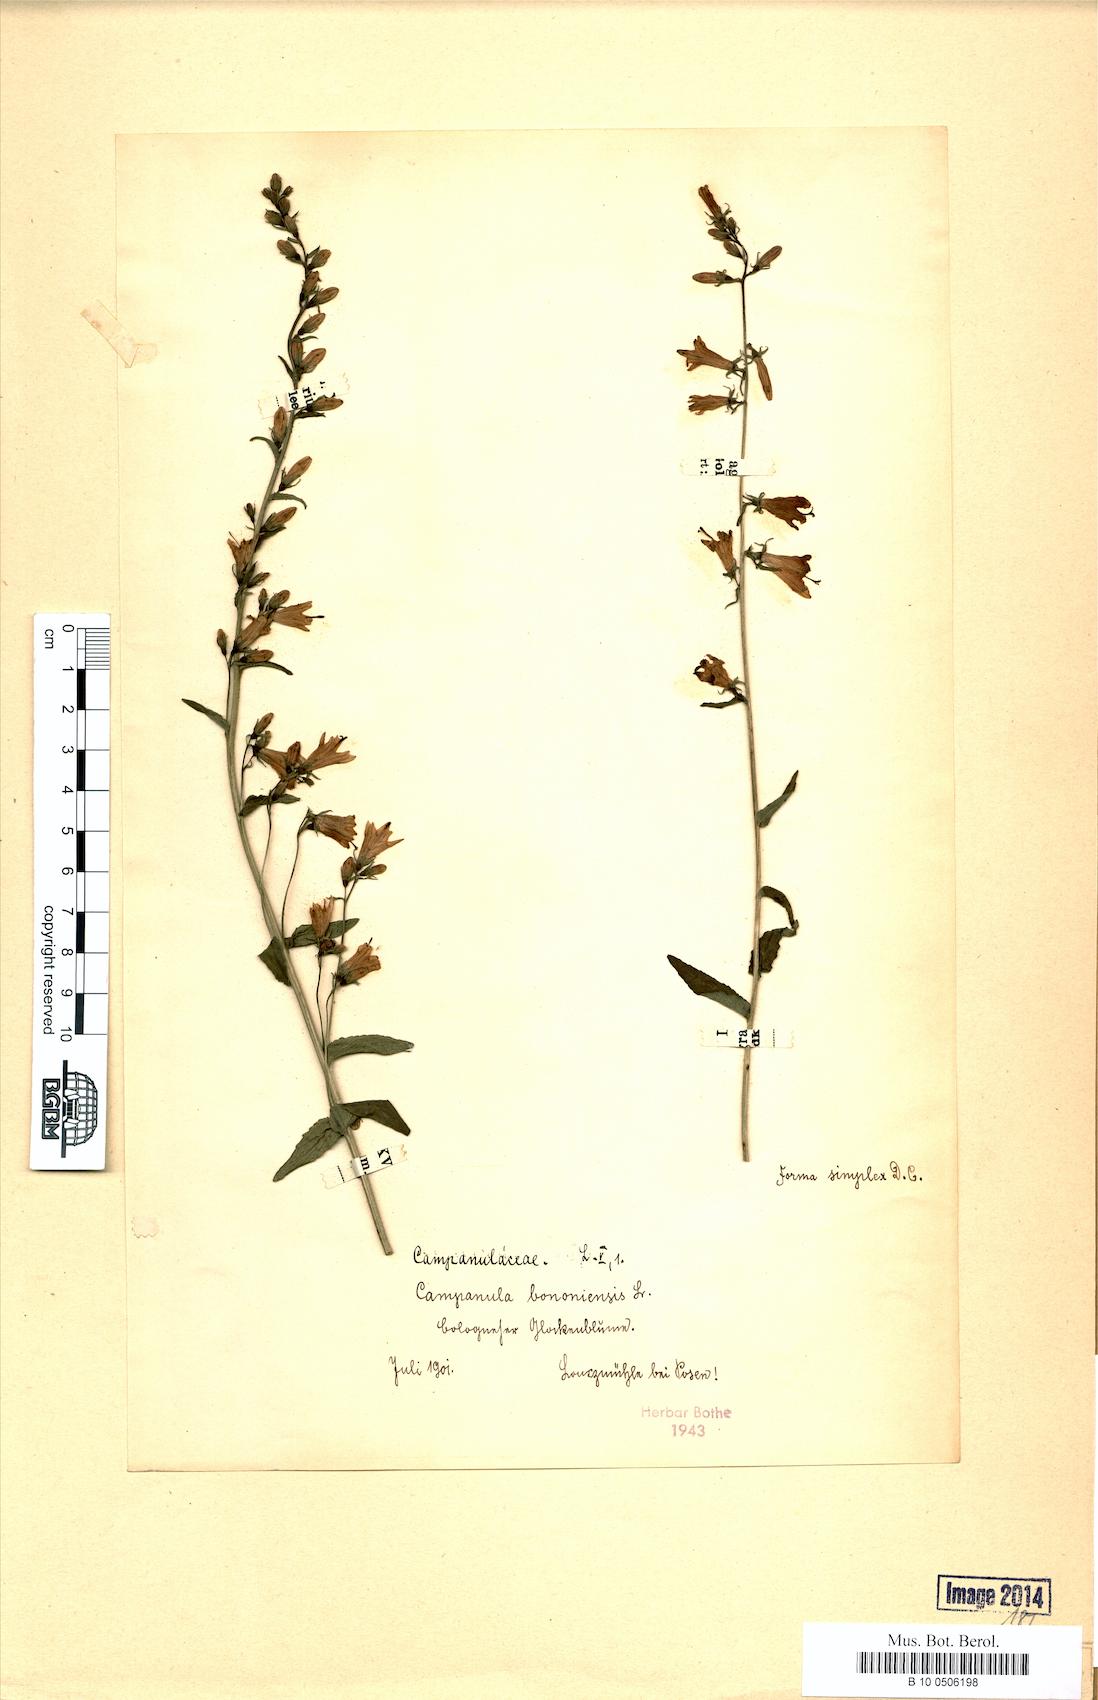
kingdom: Plantae
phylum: Tracheophyta
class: Magnoliopsida
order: Asterales
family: Campanulaceae
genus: Campanula
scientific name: Campanula bononiensis
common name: Pale bellflower
